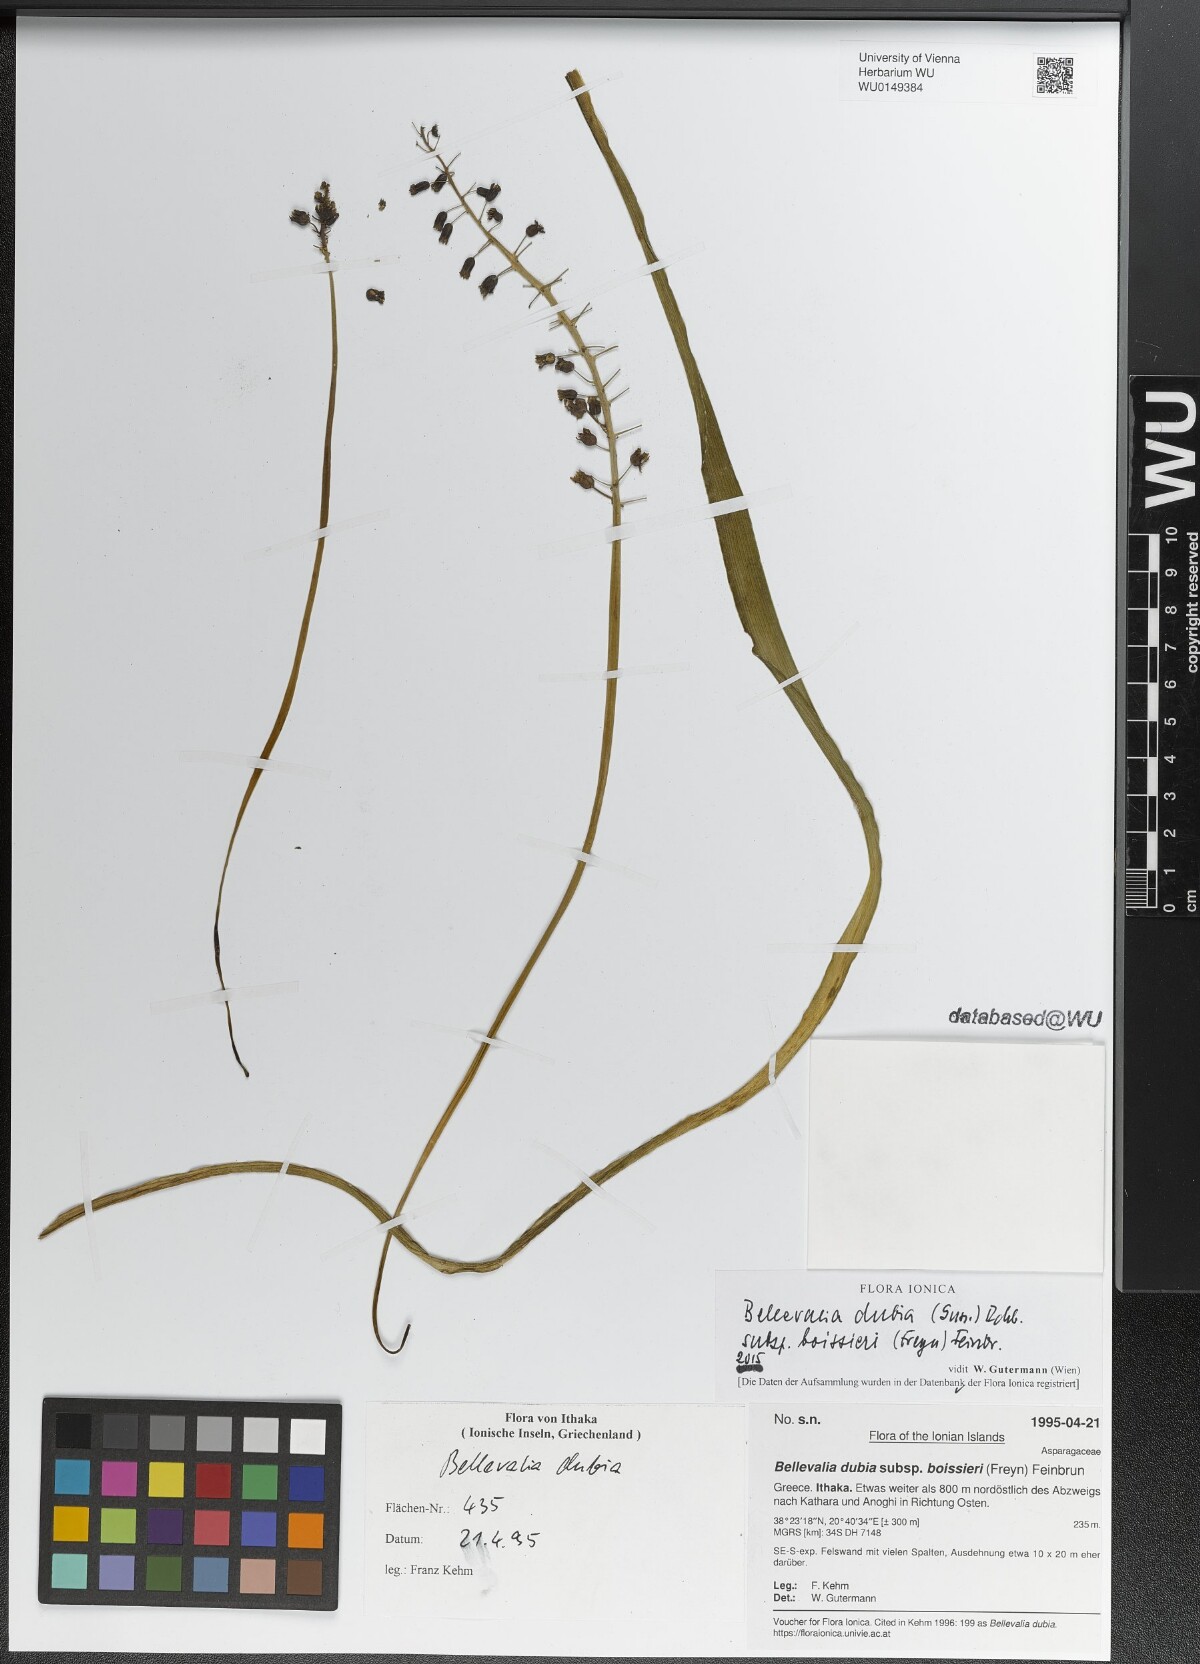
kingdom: Plantae
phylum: Tracheophyta
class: Liliopsida
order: Asparagales
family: Asparagaceae
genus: Bellevalia
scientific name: Bellevalia dubia
